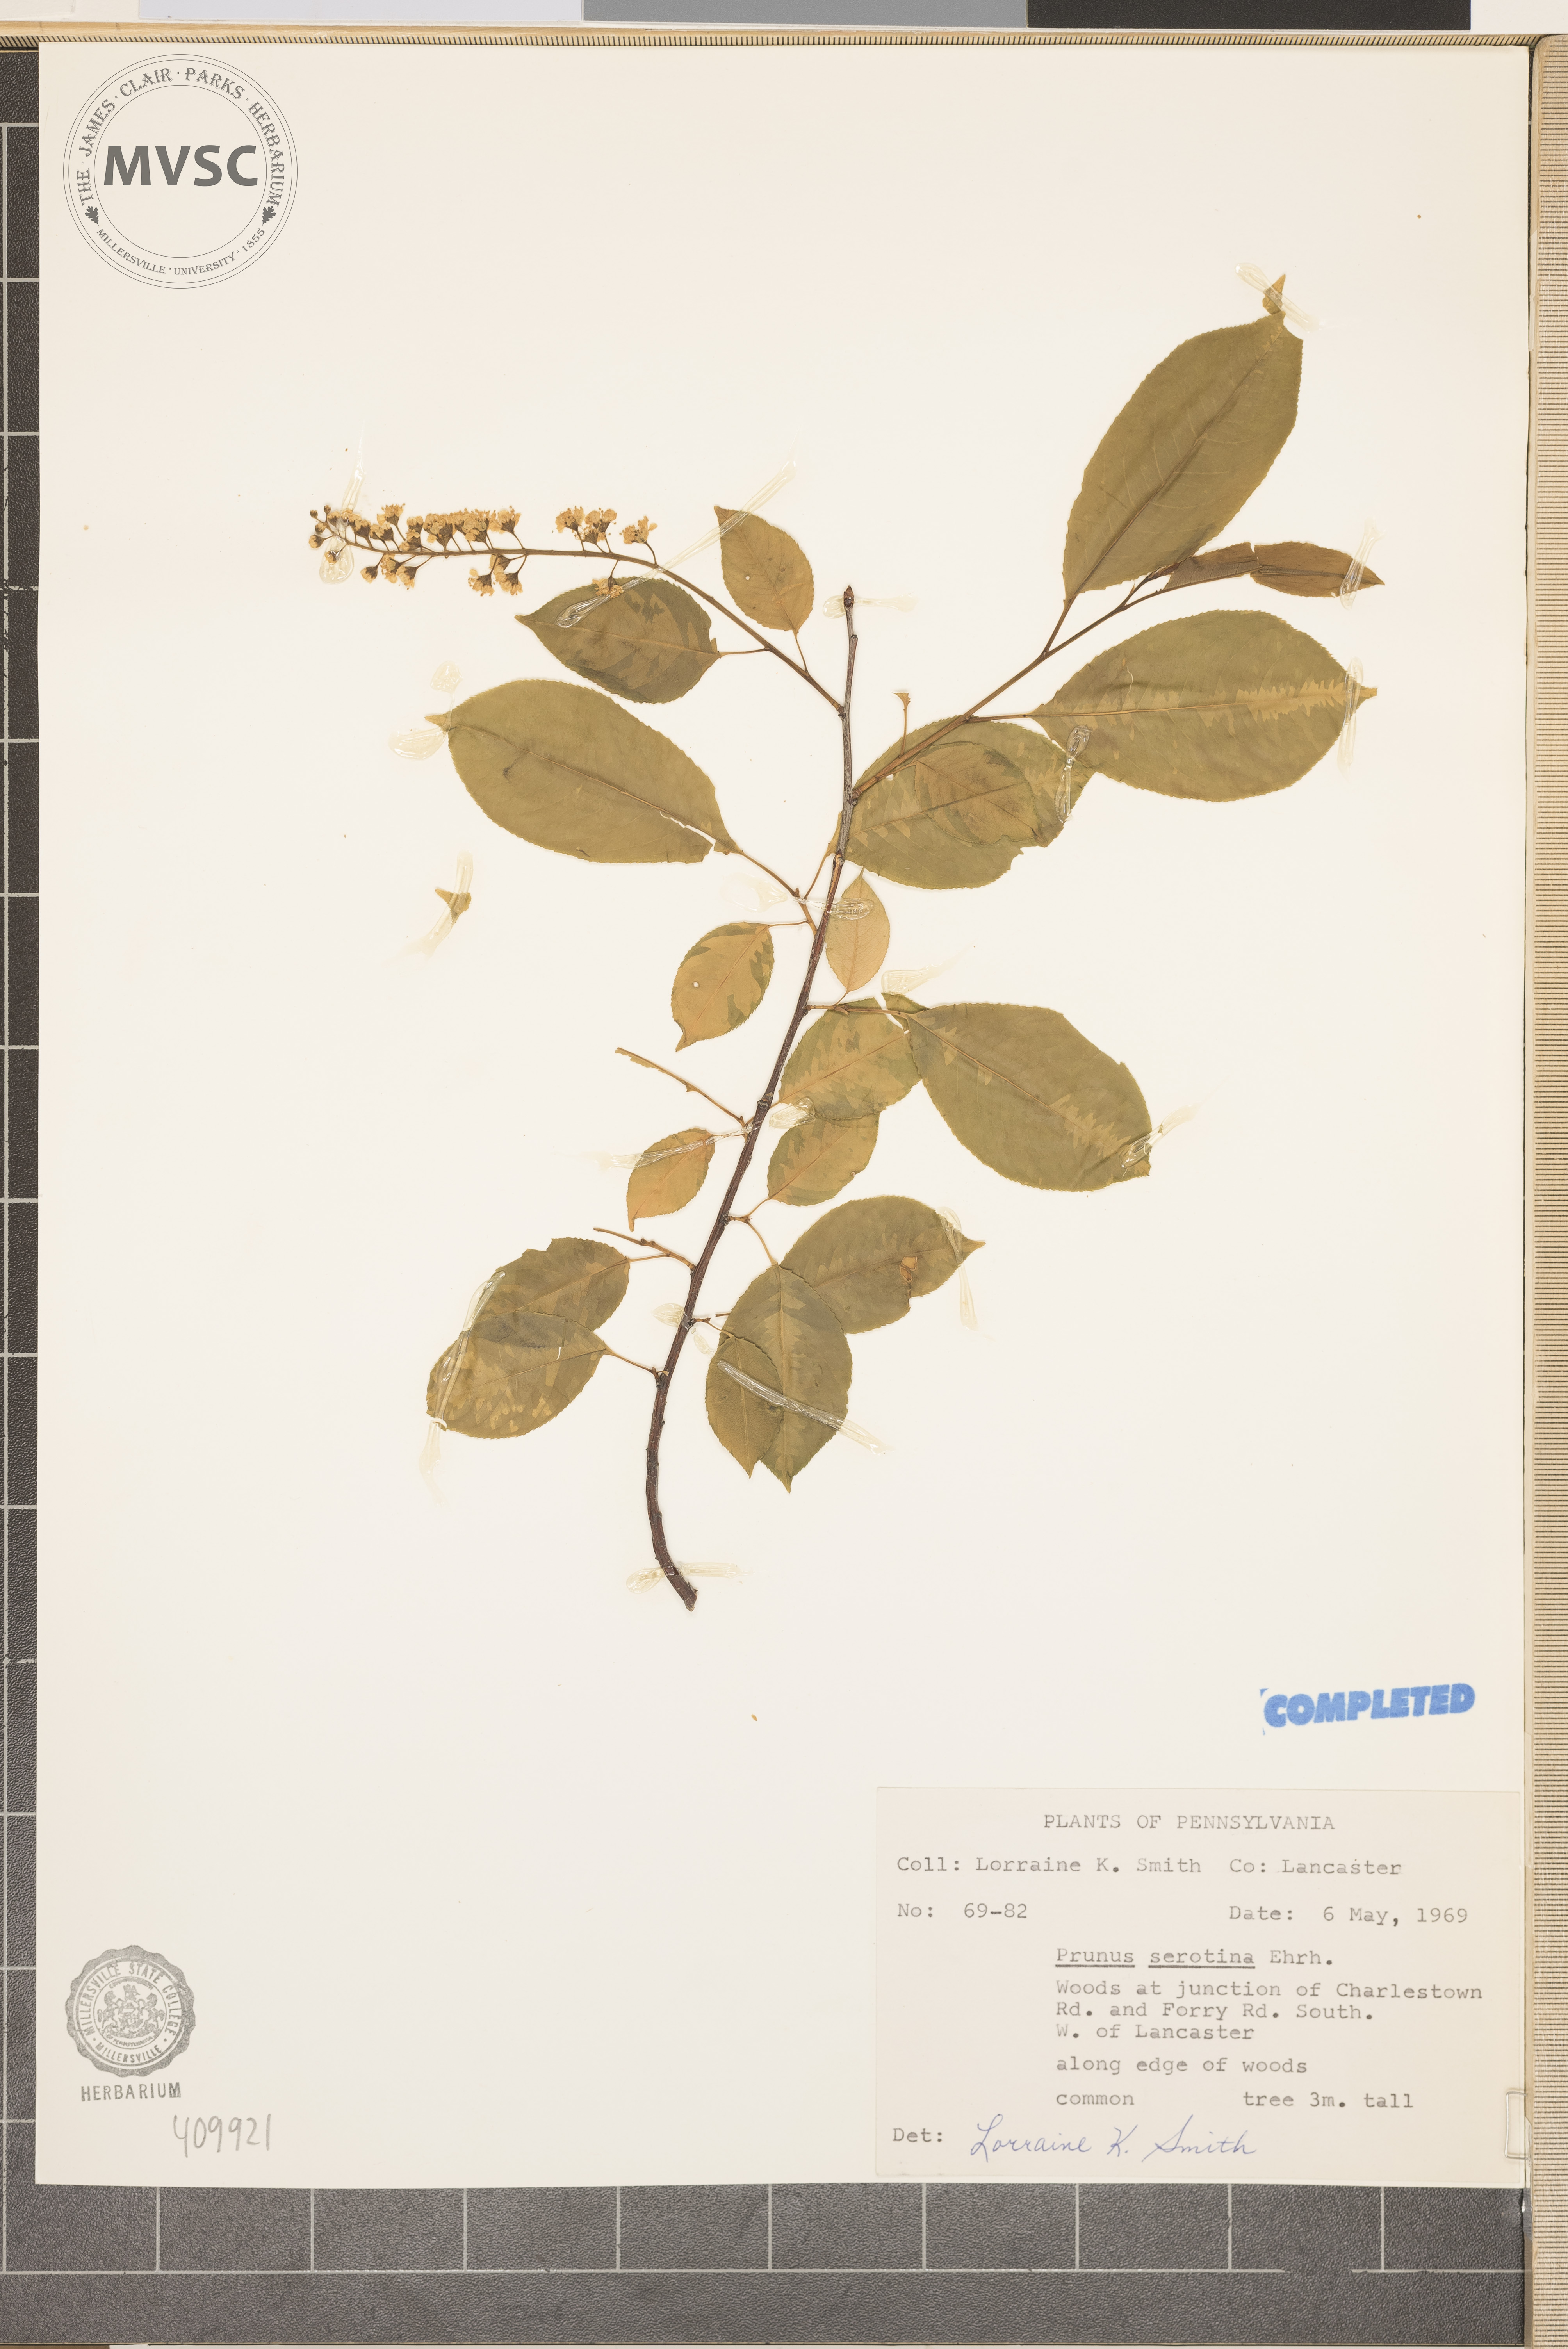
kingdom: Plantae
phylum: Tracheophyta
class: Magnoliopsida
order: Rosales
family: Rosaceae
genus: Prunus
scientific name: Prunus serotina
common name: Black cherry
